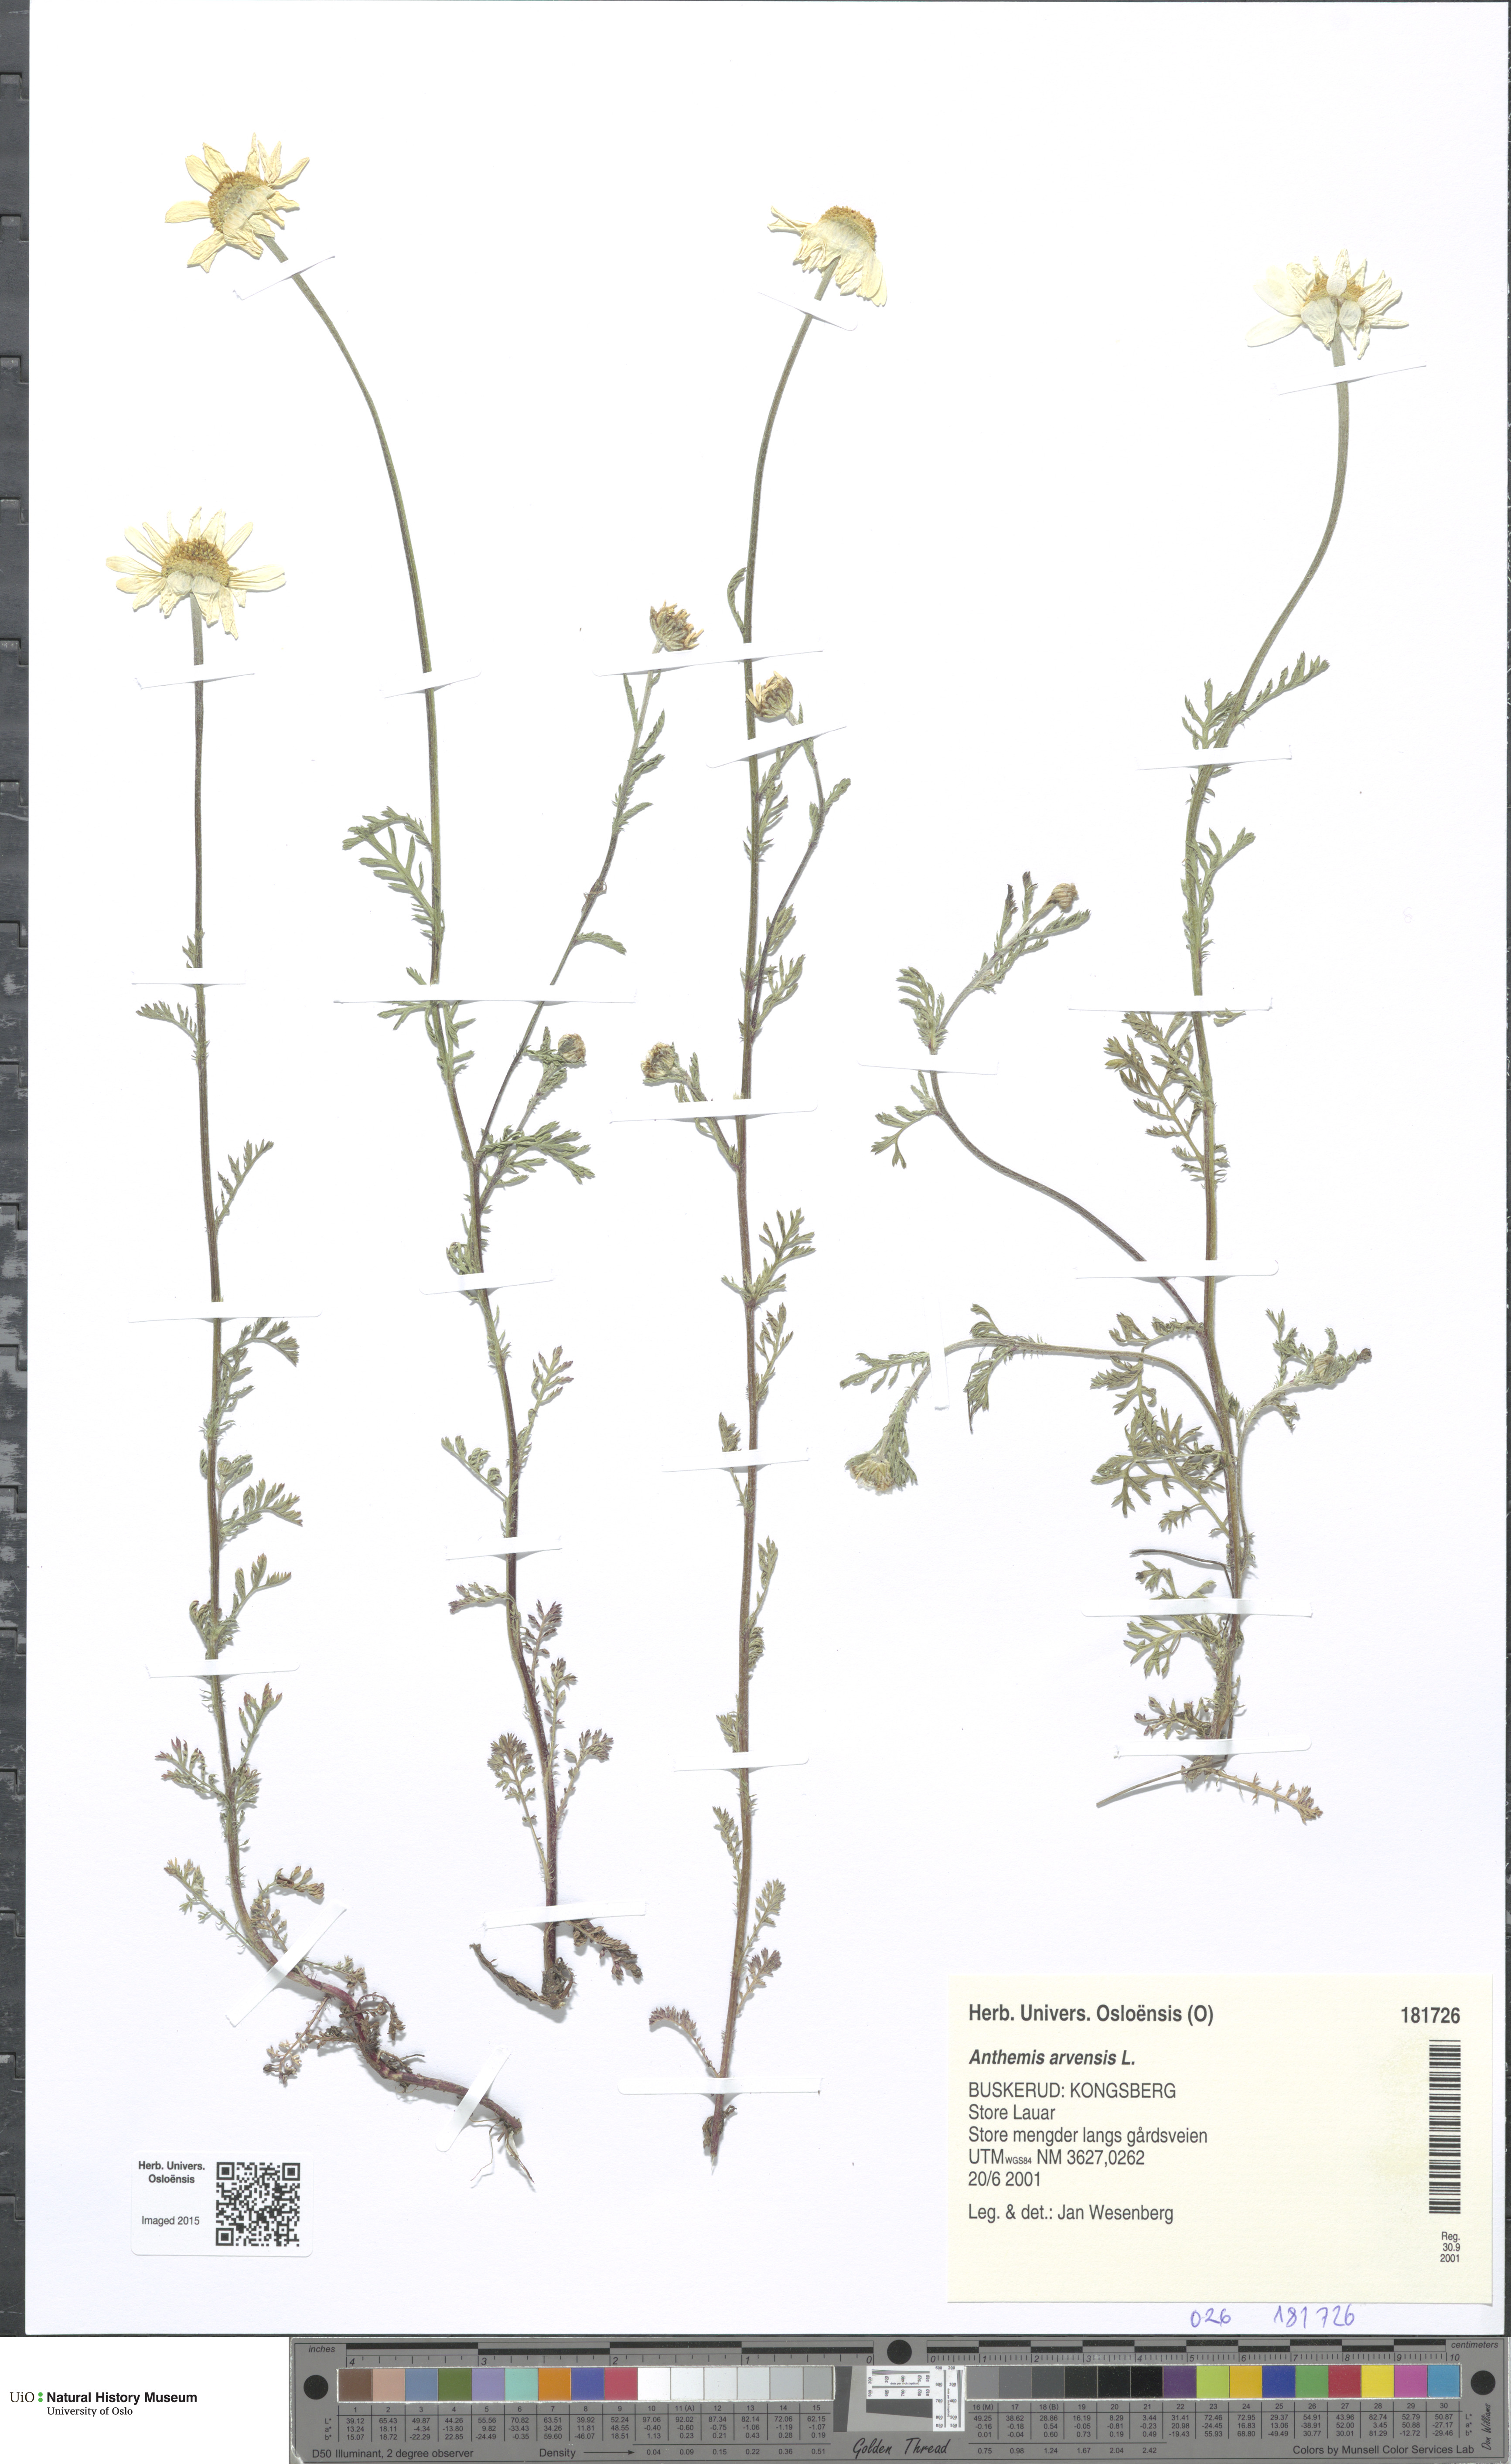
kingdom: Plantae
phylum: Tracheophyta
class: Magnoliopsida
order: Asterales
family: Asteraceae
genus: Anthemis
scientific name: Anthemis arvensis
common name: Corn chamomile
